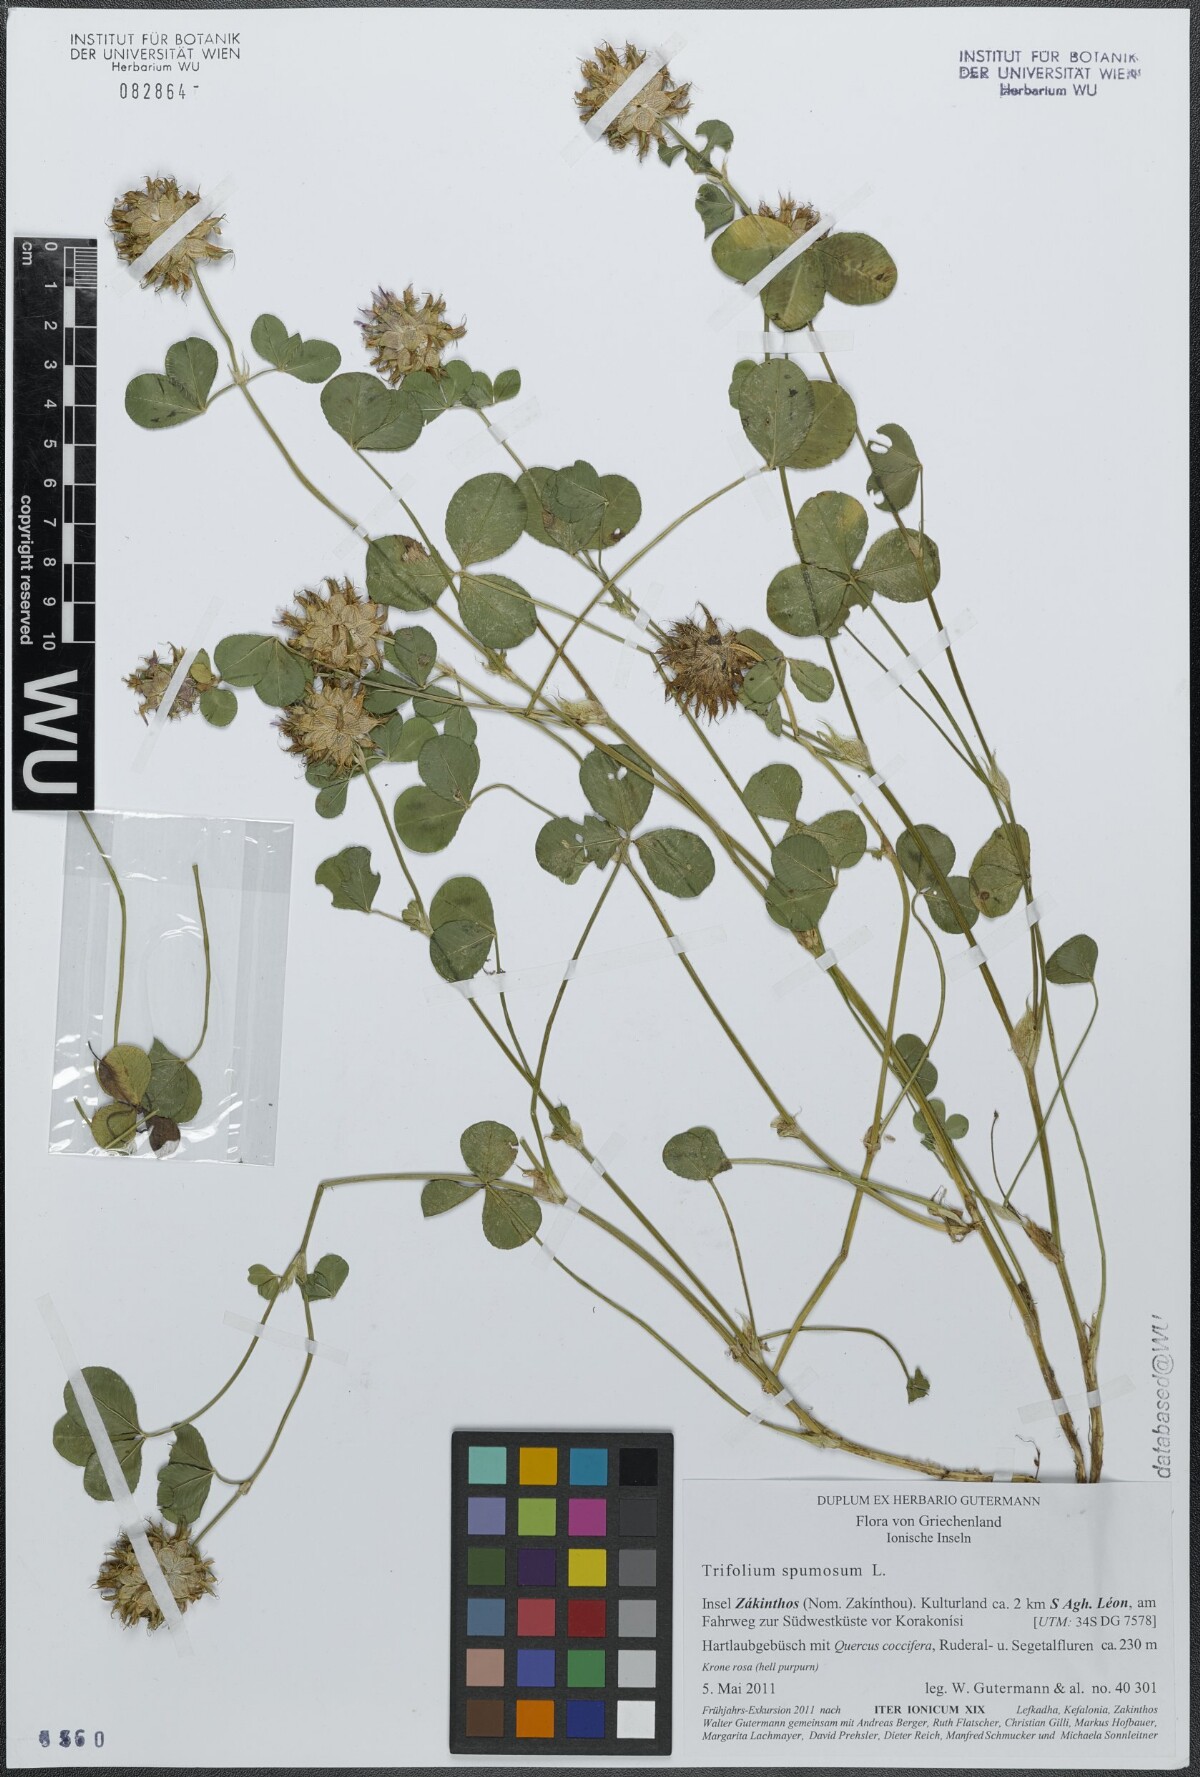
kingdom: Plantae
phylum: Tracheophyta
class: Magnoliopsida
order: Fabales
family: Fabaceae
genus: Trifolium
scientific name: Trifolium spumosum
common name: Mediterranean clover
